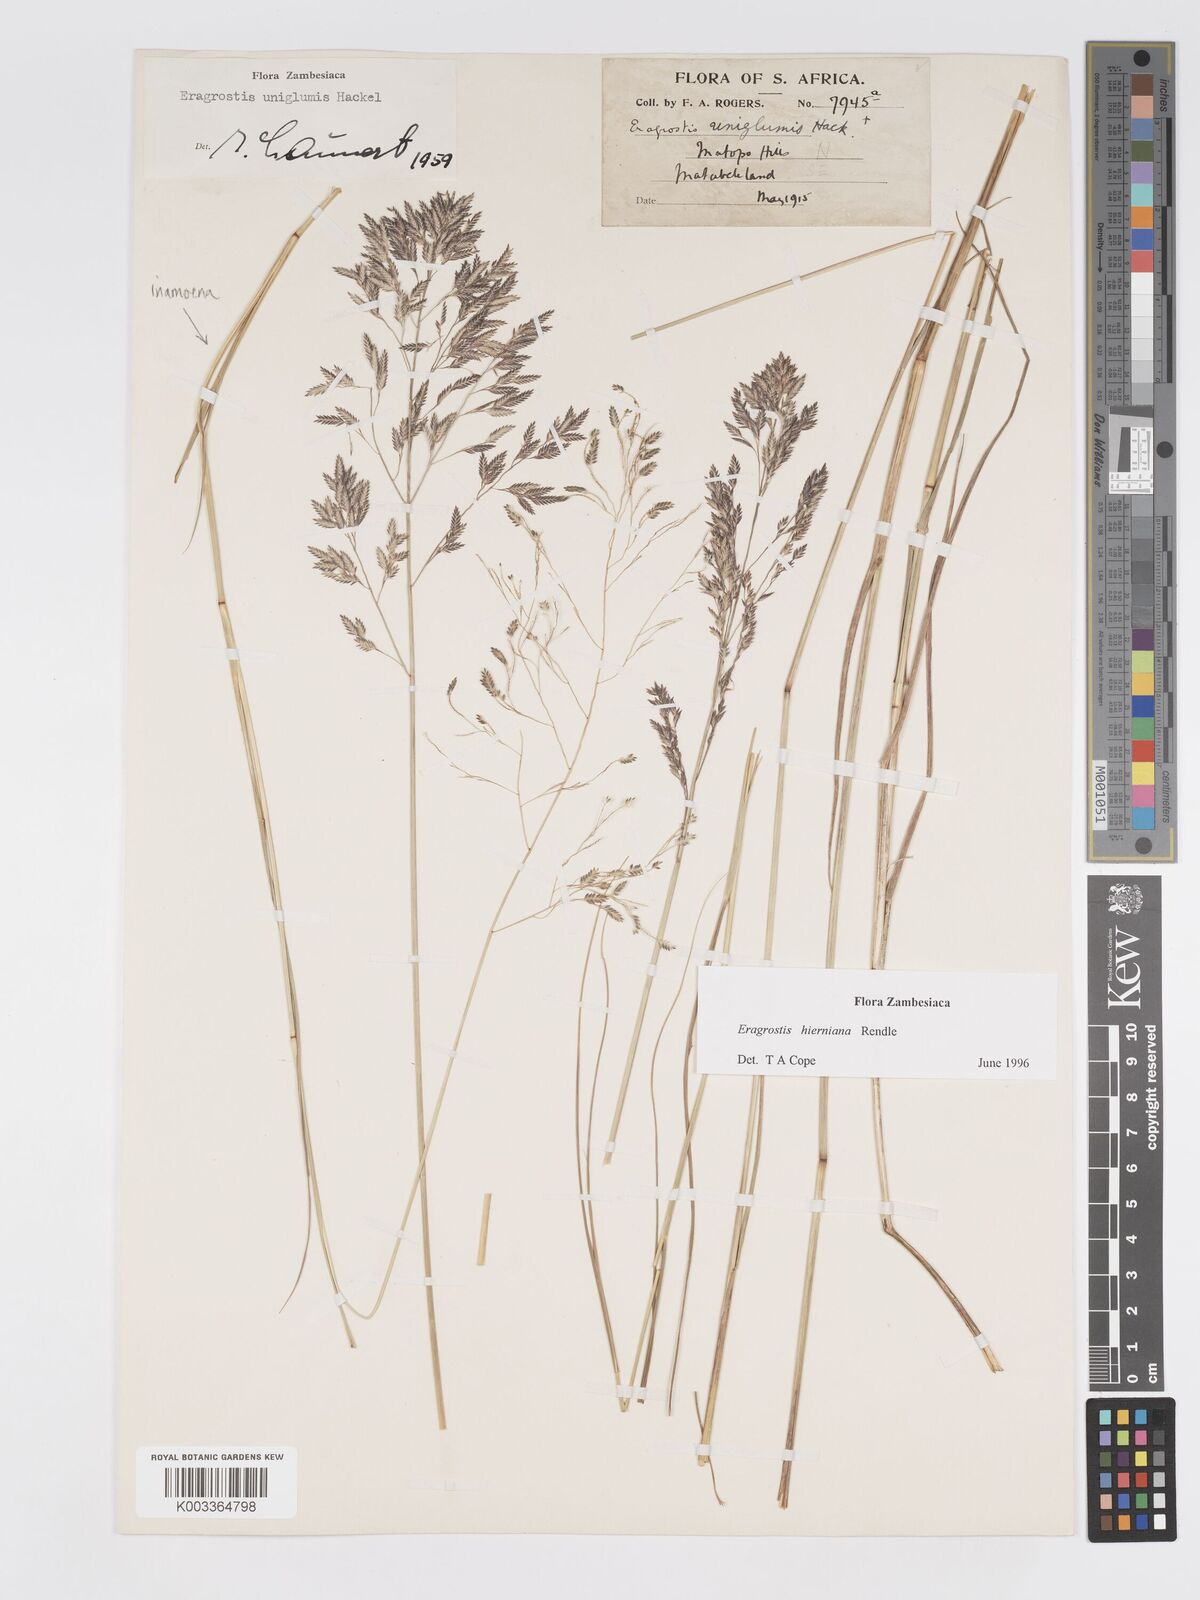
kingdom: Plantae
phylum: Tracheophyta
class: Liliopsida
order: Poales
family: Poaceae
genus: Eragrostis
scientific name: Eragrostis hierniana
